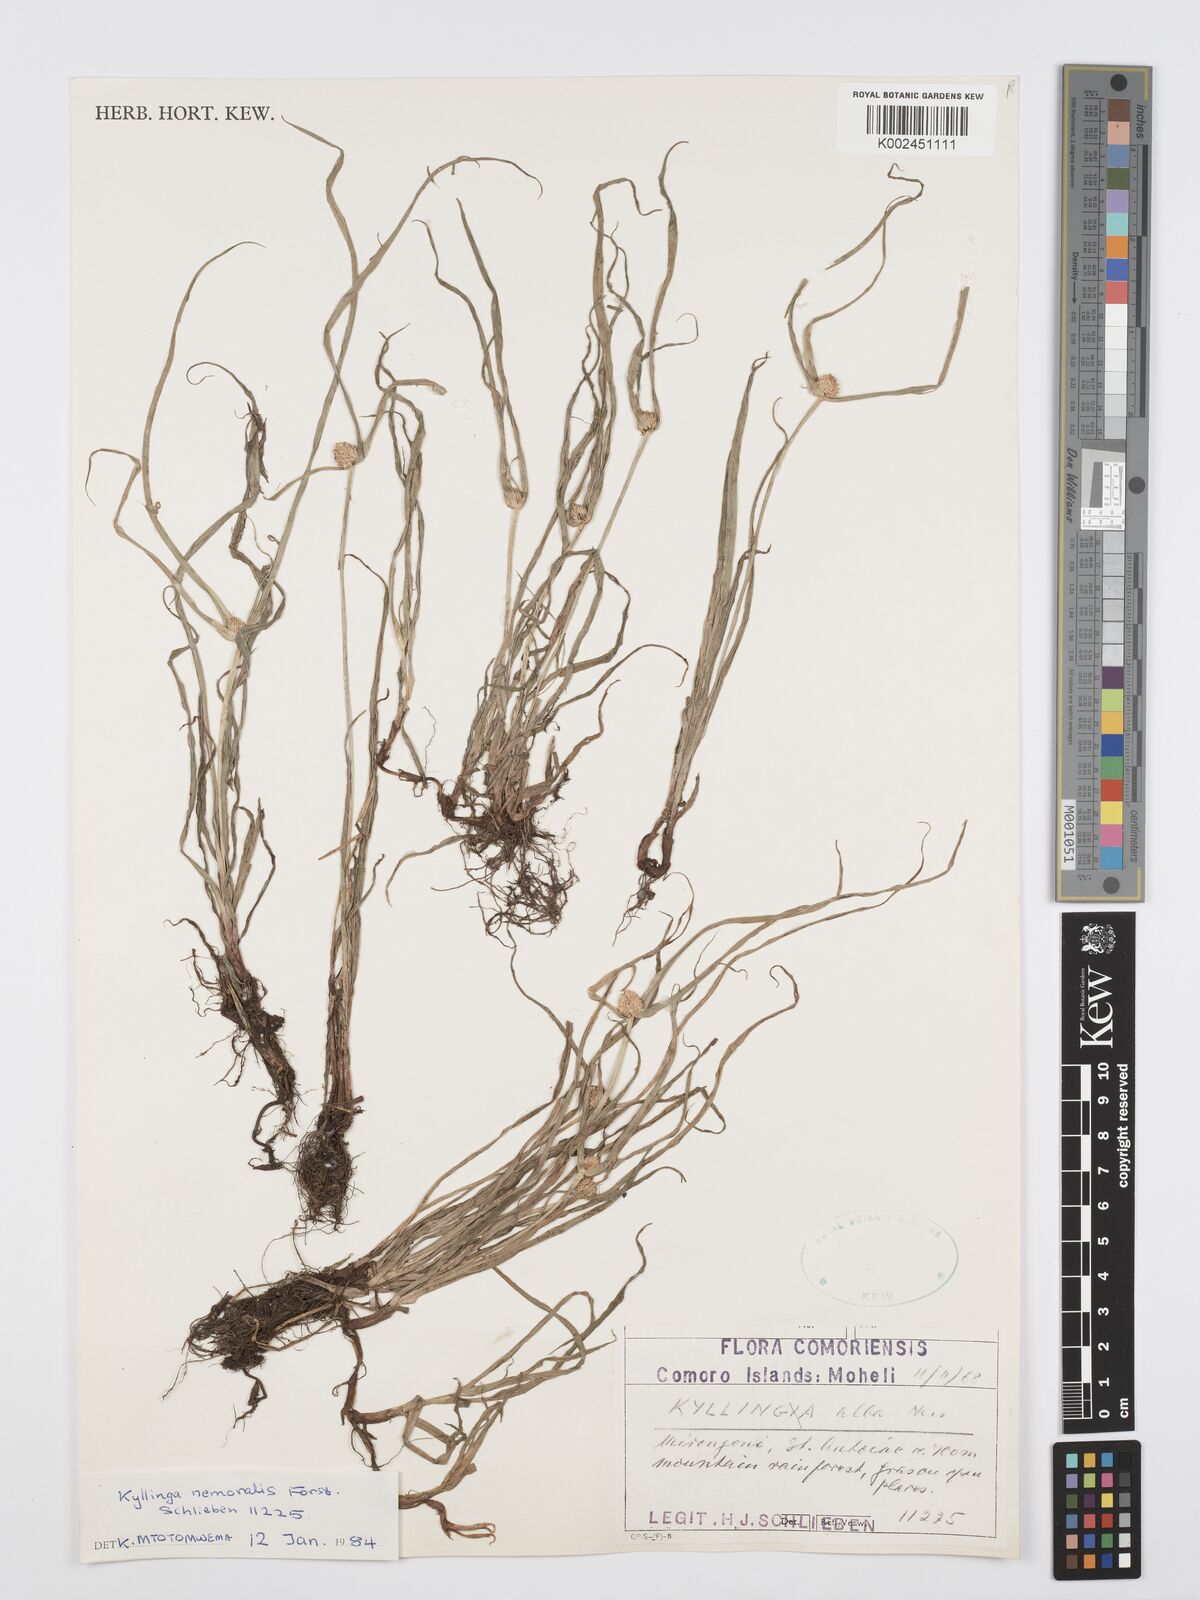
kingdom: Plantae
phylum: Tracheophyta
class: Liliopsida
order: Poales
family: Cyperaceae
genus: Cyperus
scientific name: Cyperus nemoralis
